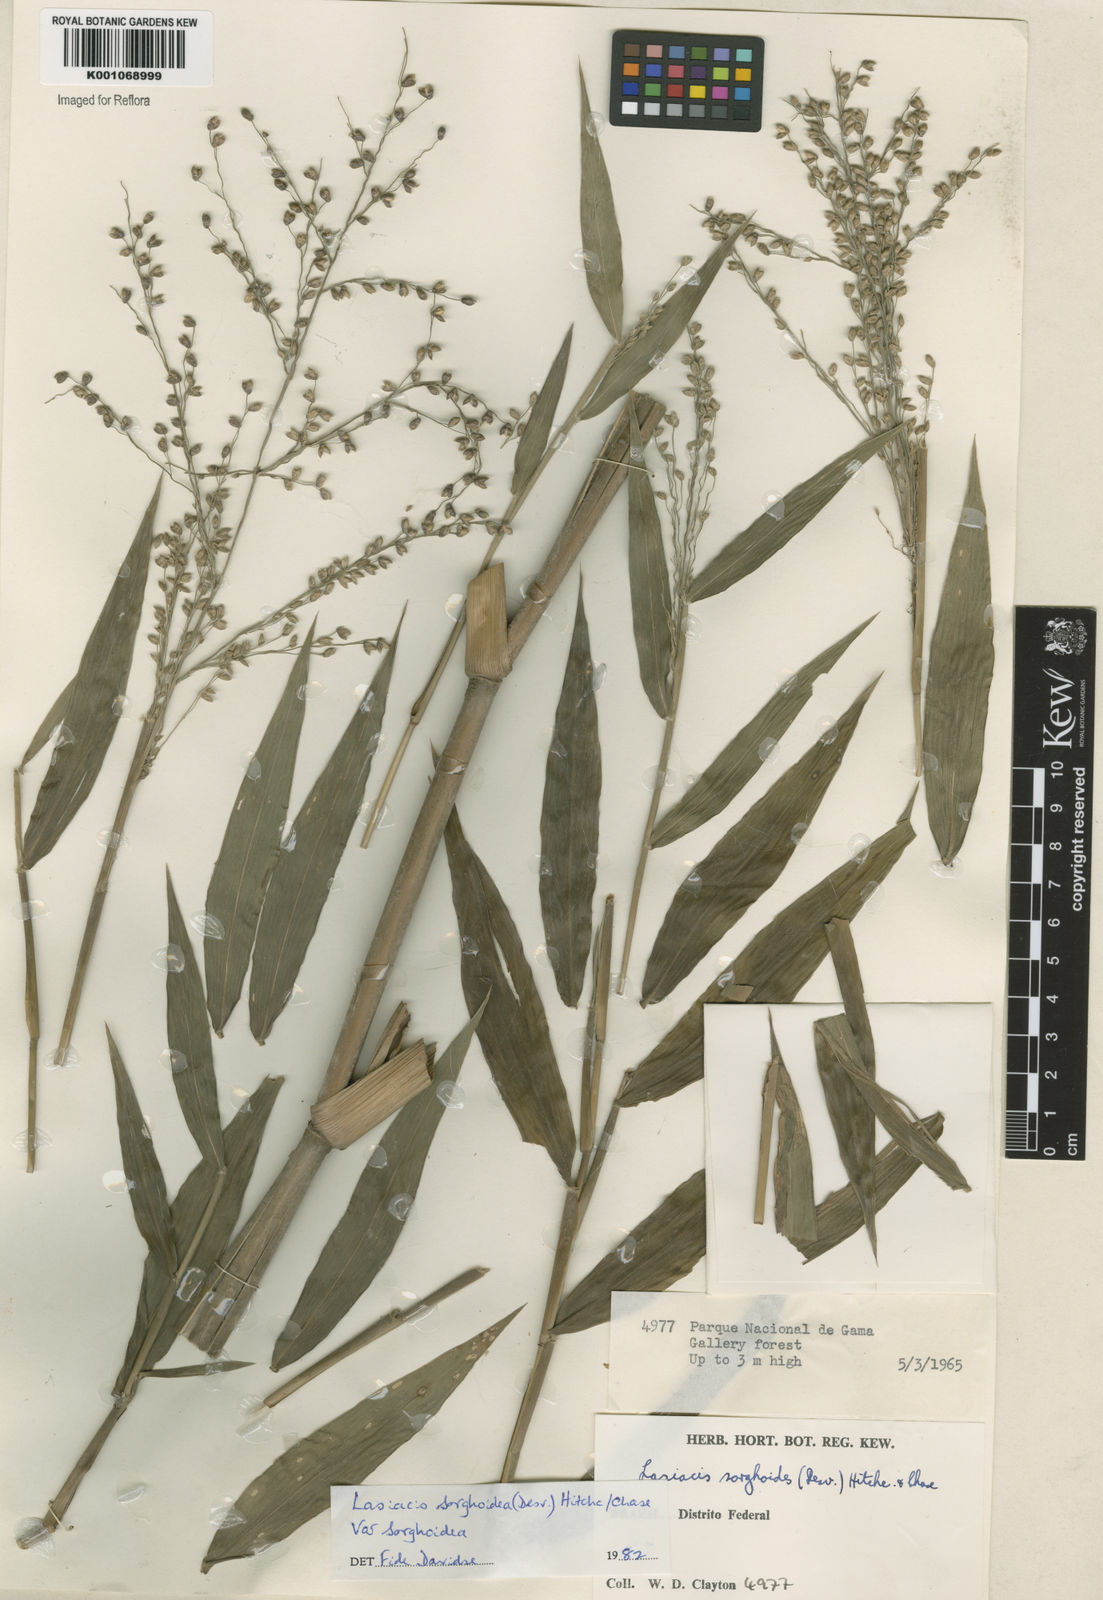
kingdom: Plantae
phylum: Tracheophyta
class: Liliopsida
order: Poales
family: Poaceae
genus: Lasiacis
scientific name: Lasiacis maculata
